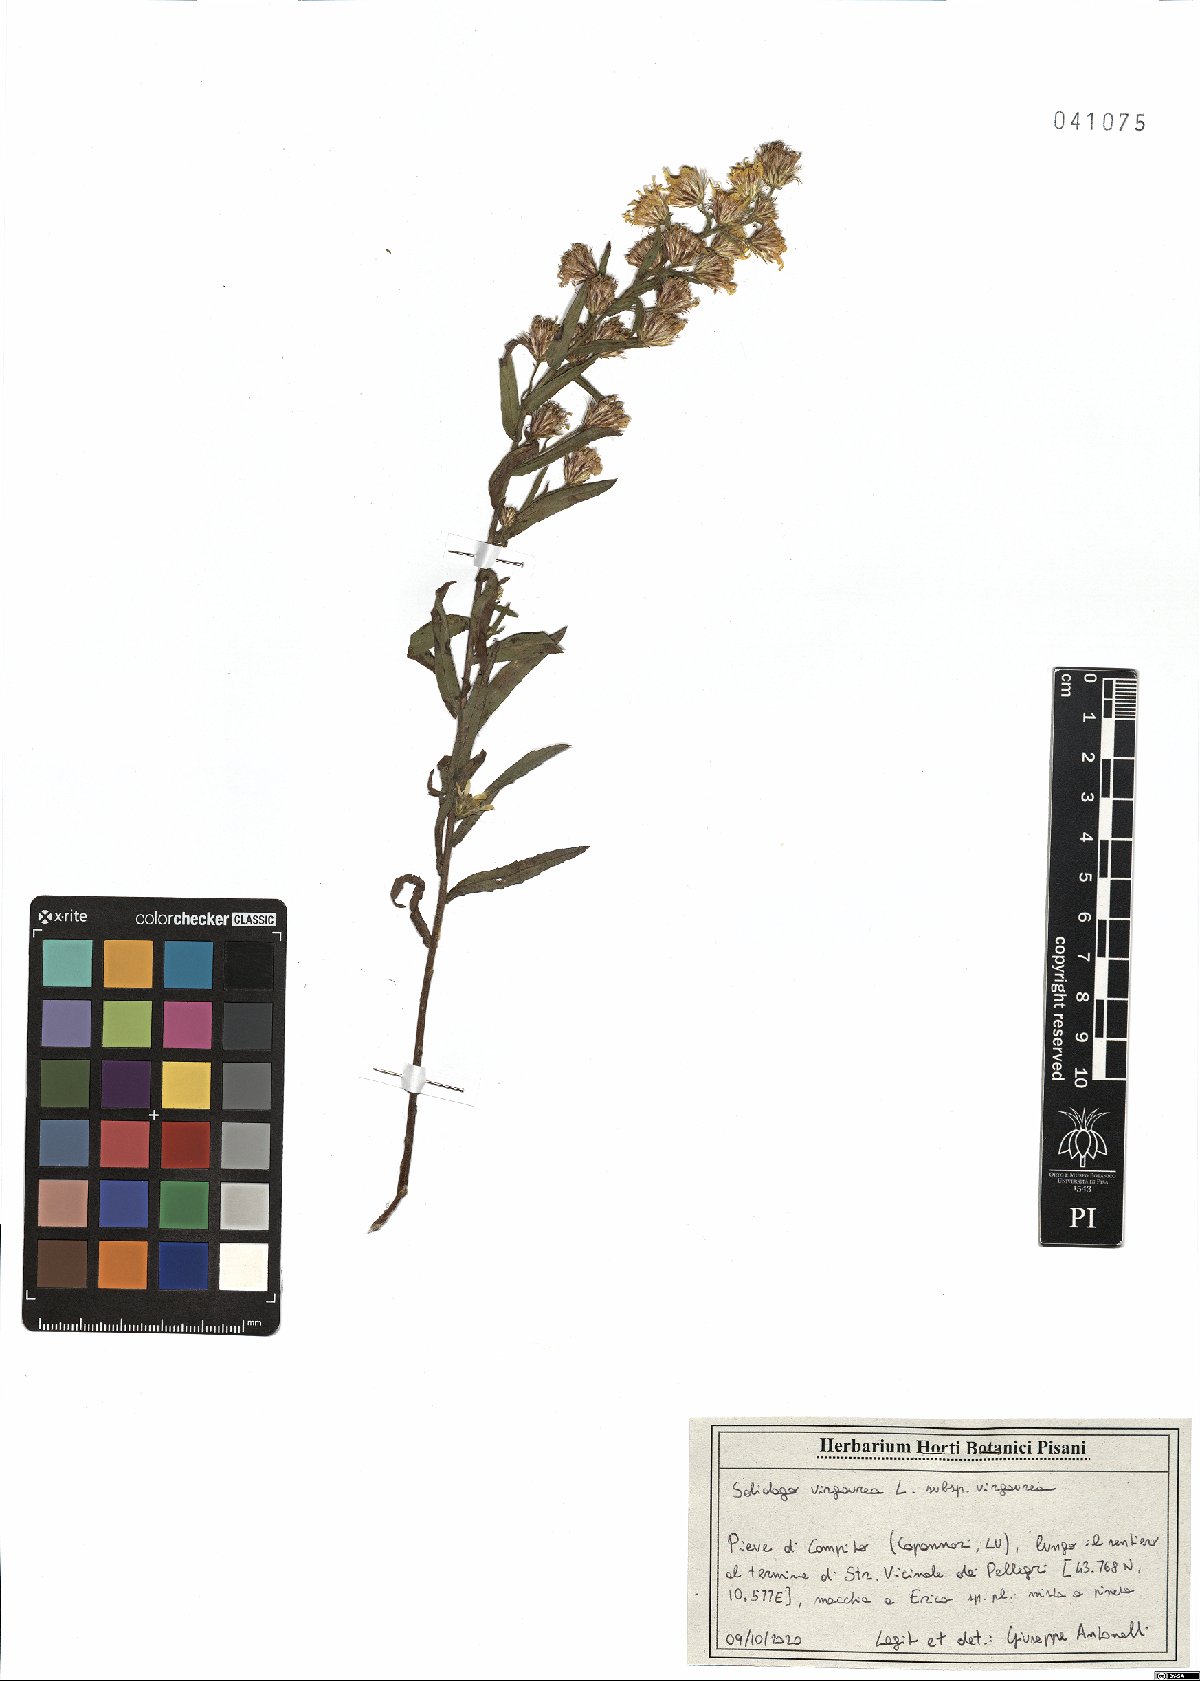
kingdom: Plantae
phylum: Tracheophyta
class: Magnoliopsida
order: Asterales
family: Asteraceae
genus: Solidago
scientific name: Solidago virgaurea
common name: Goldenrod
